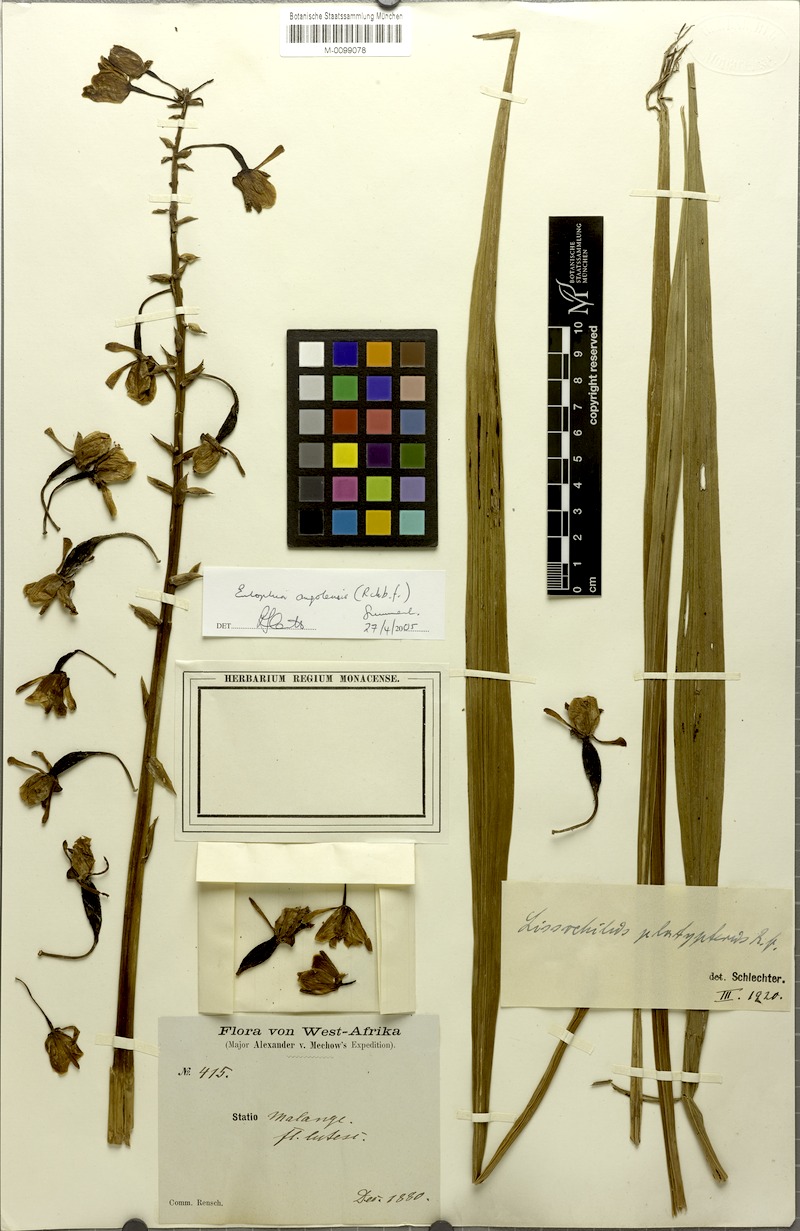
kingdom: Plantae
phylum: Tracheophyta
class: Liliopsida
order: Asparagales
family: Orchidaceae
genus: Eulophia
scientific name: Eulophia angolensis
